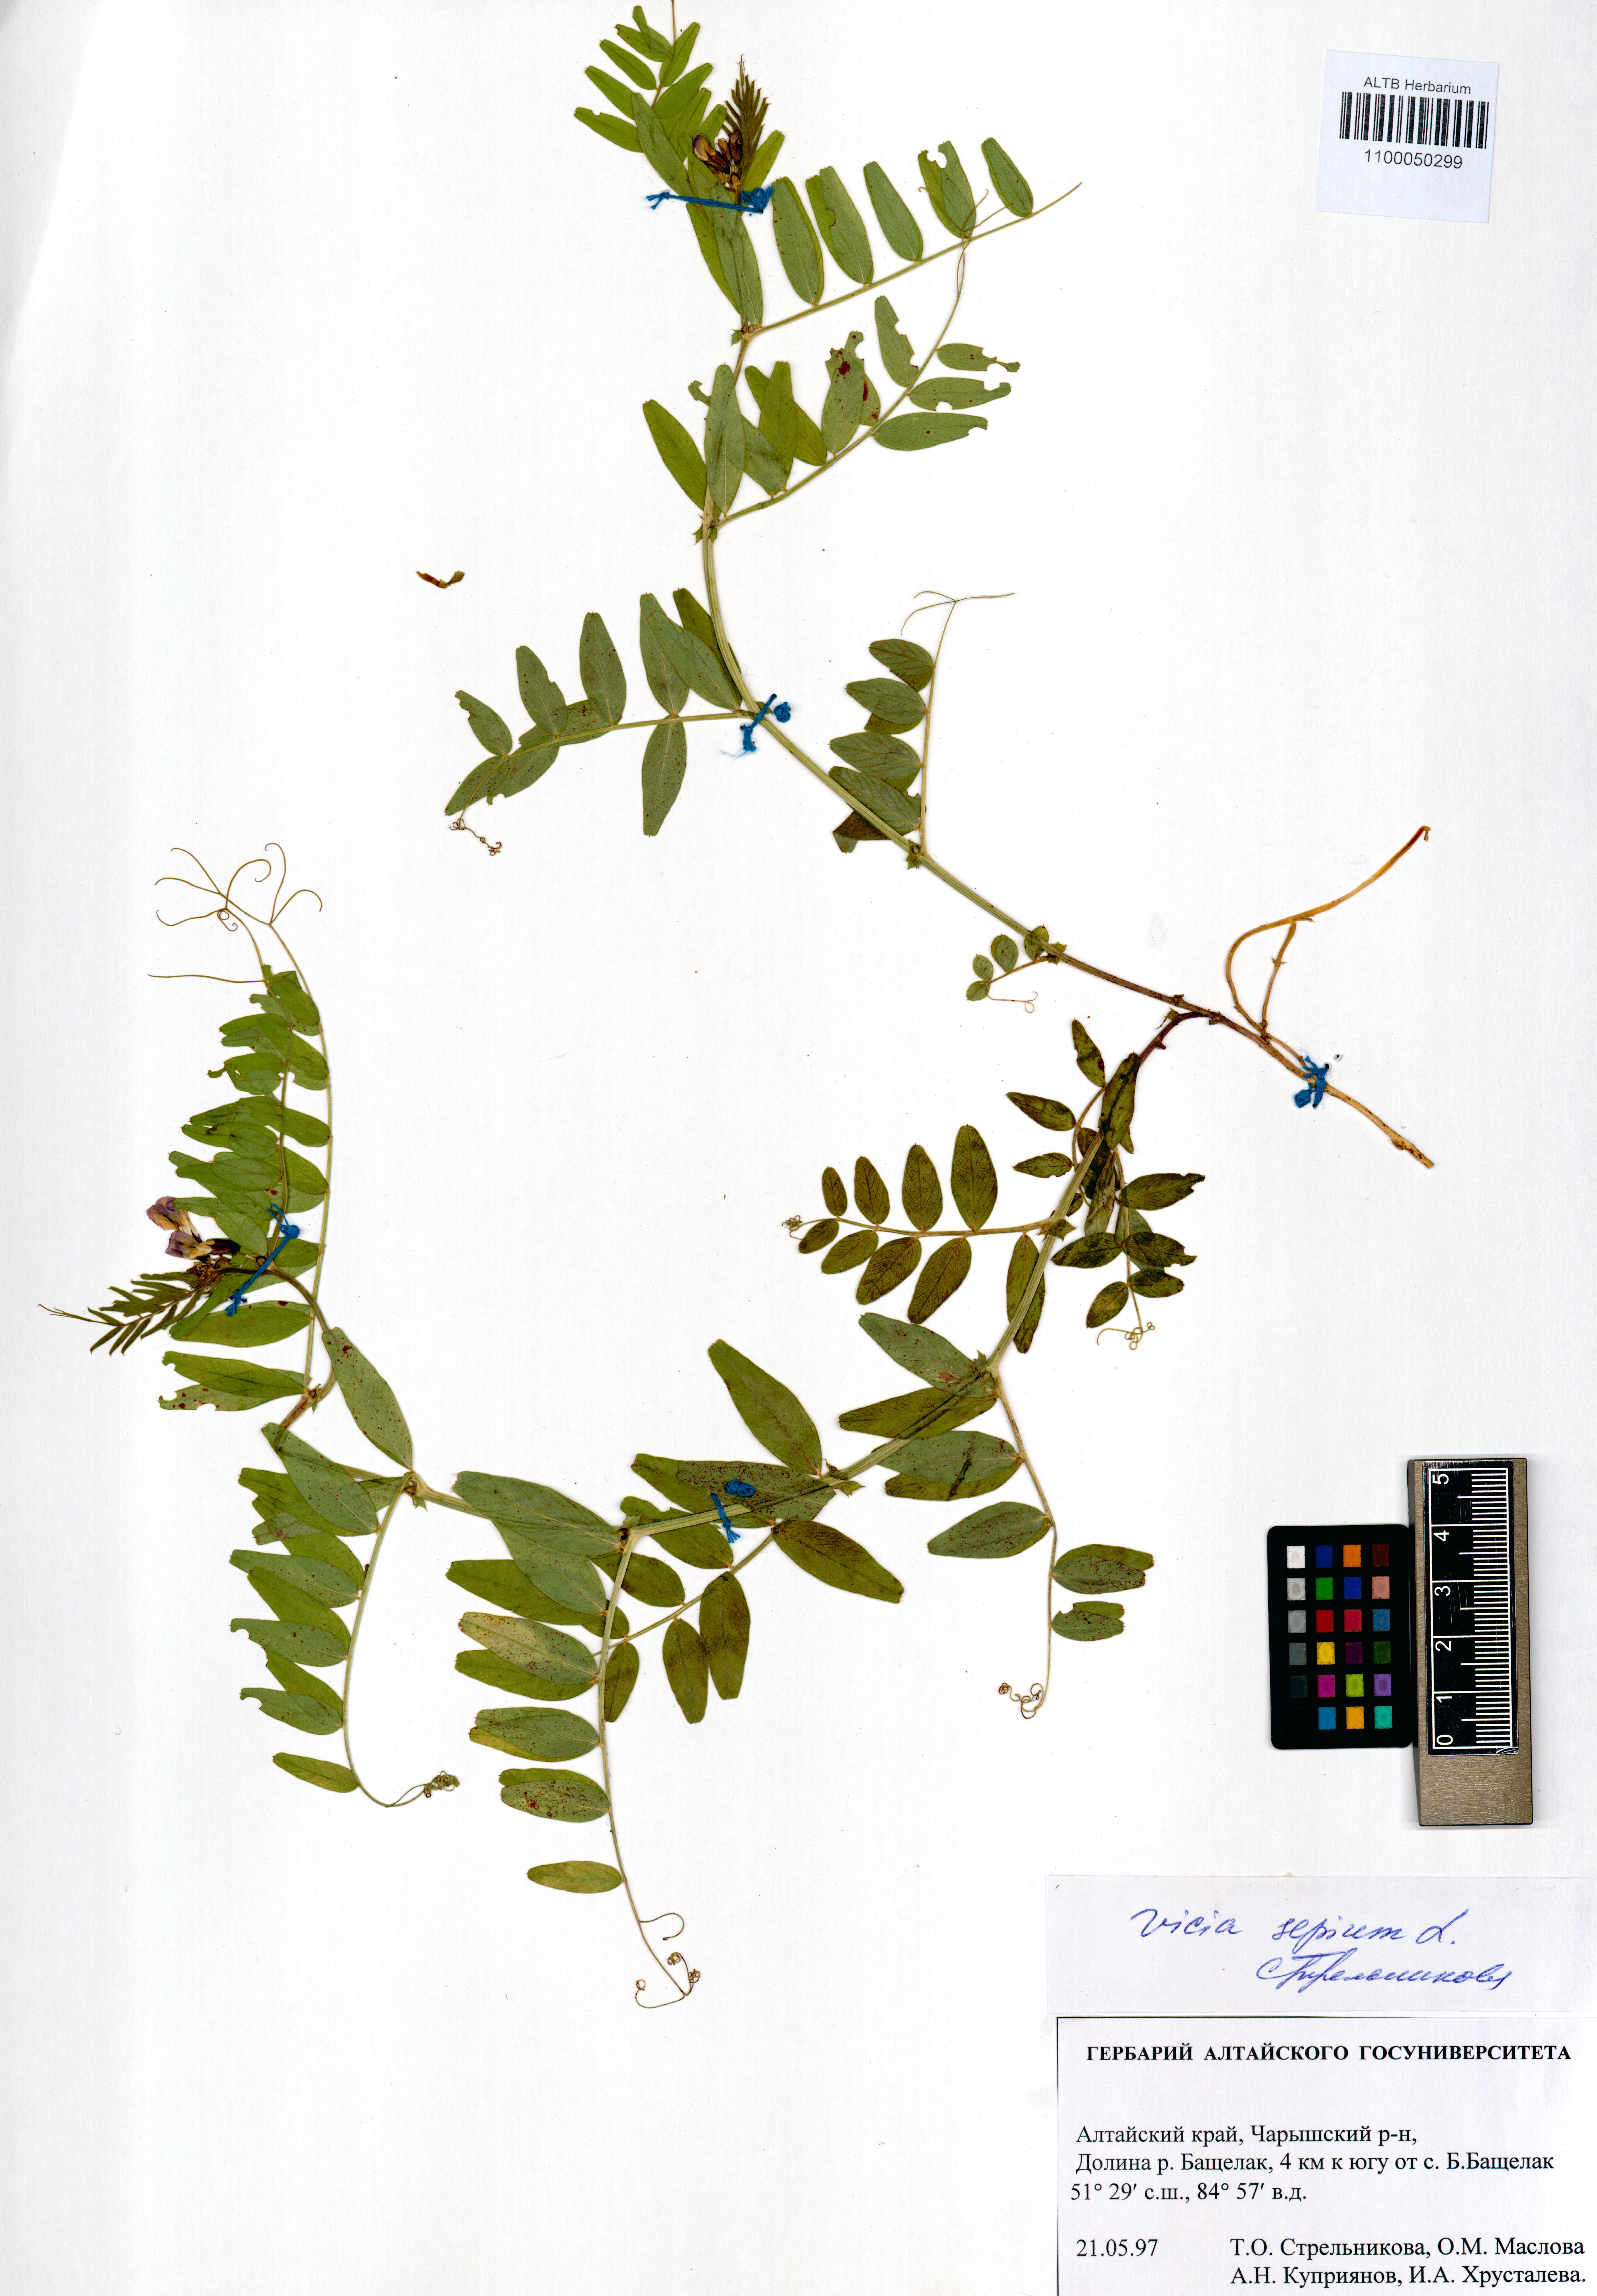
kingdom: Plantae
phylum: Tracheophyta
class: Magnoliopsida
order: Fabales
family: Fabaceae
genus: Vicia
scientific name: Vicia sepium
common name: Bush vetch
